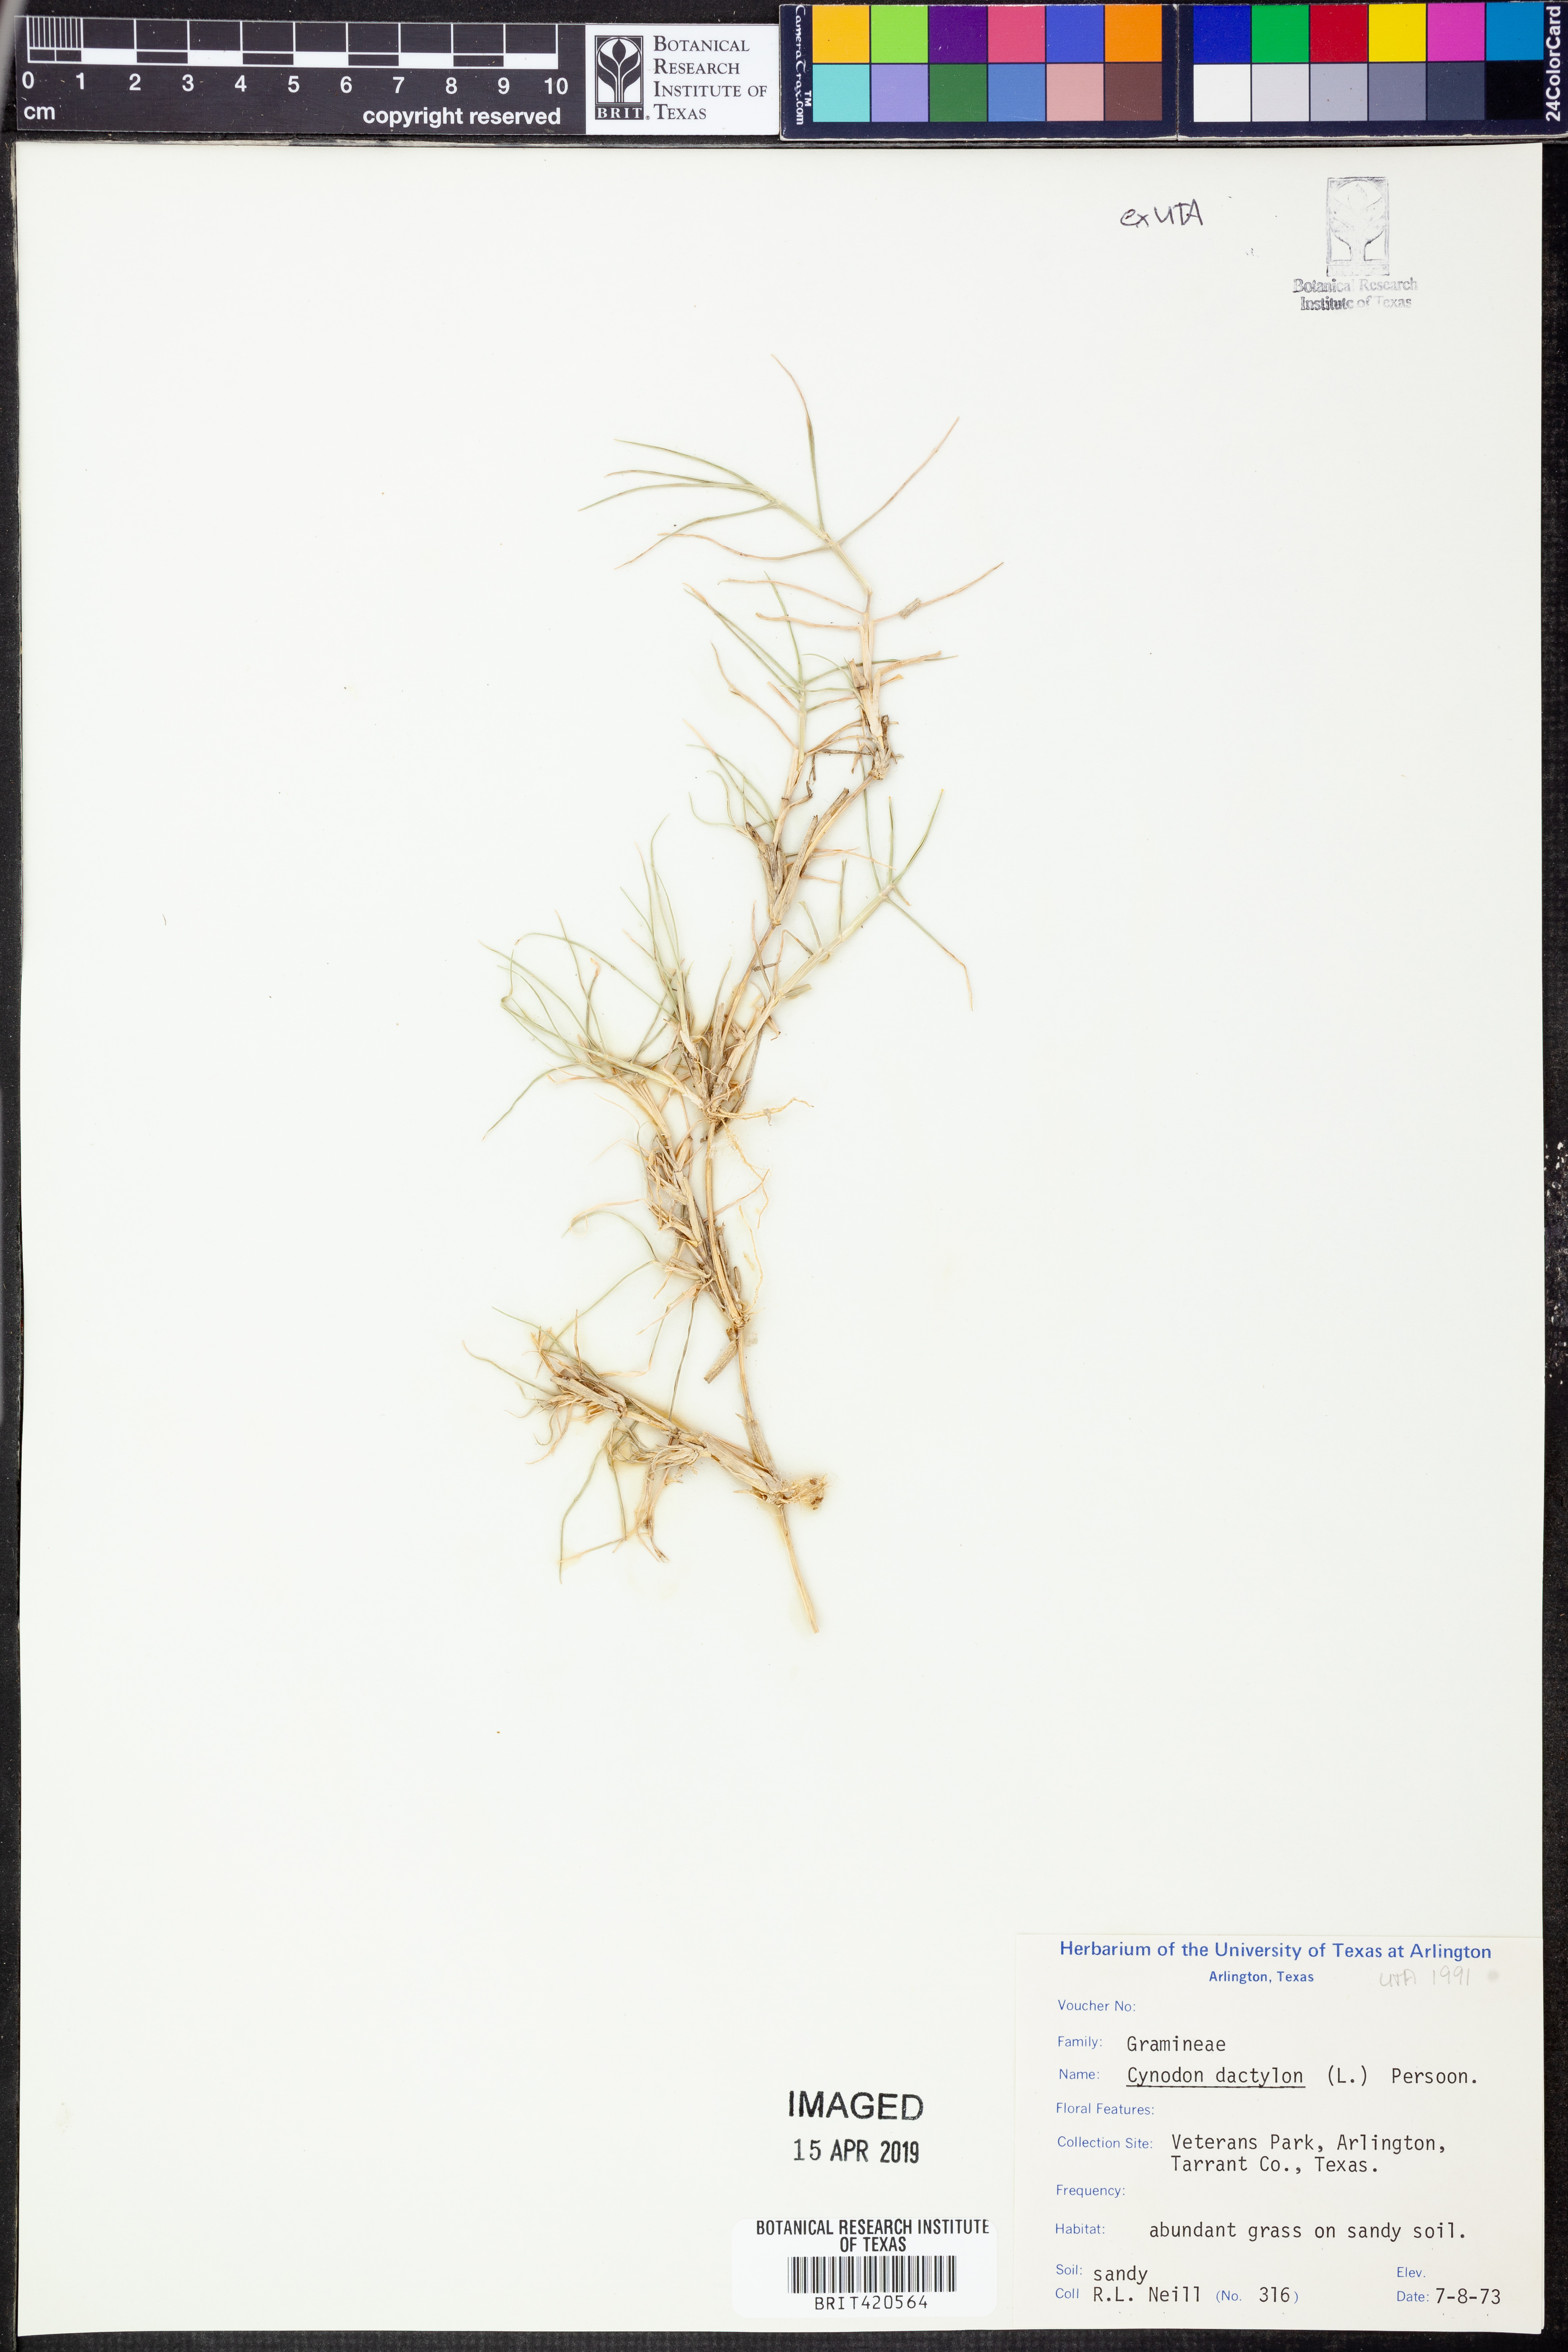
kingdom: Plantae
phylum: Tracheophyta
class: Liliopsida
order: Poales
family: Poaceae
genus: Cynodon
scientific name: Cynodon dactylon
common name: Bermuda grass
